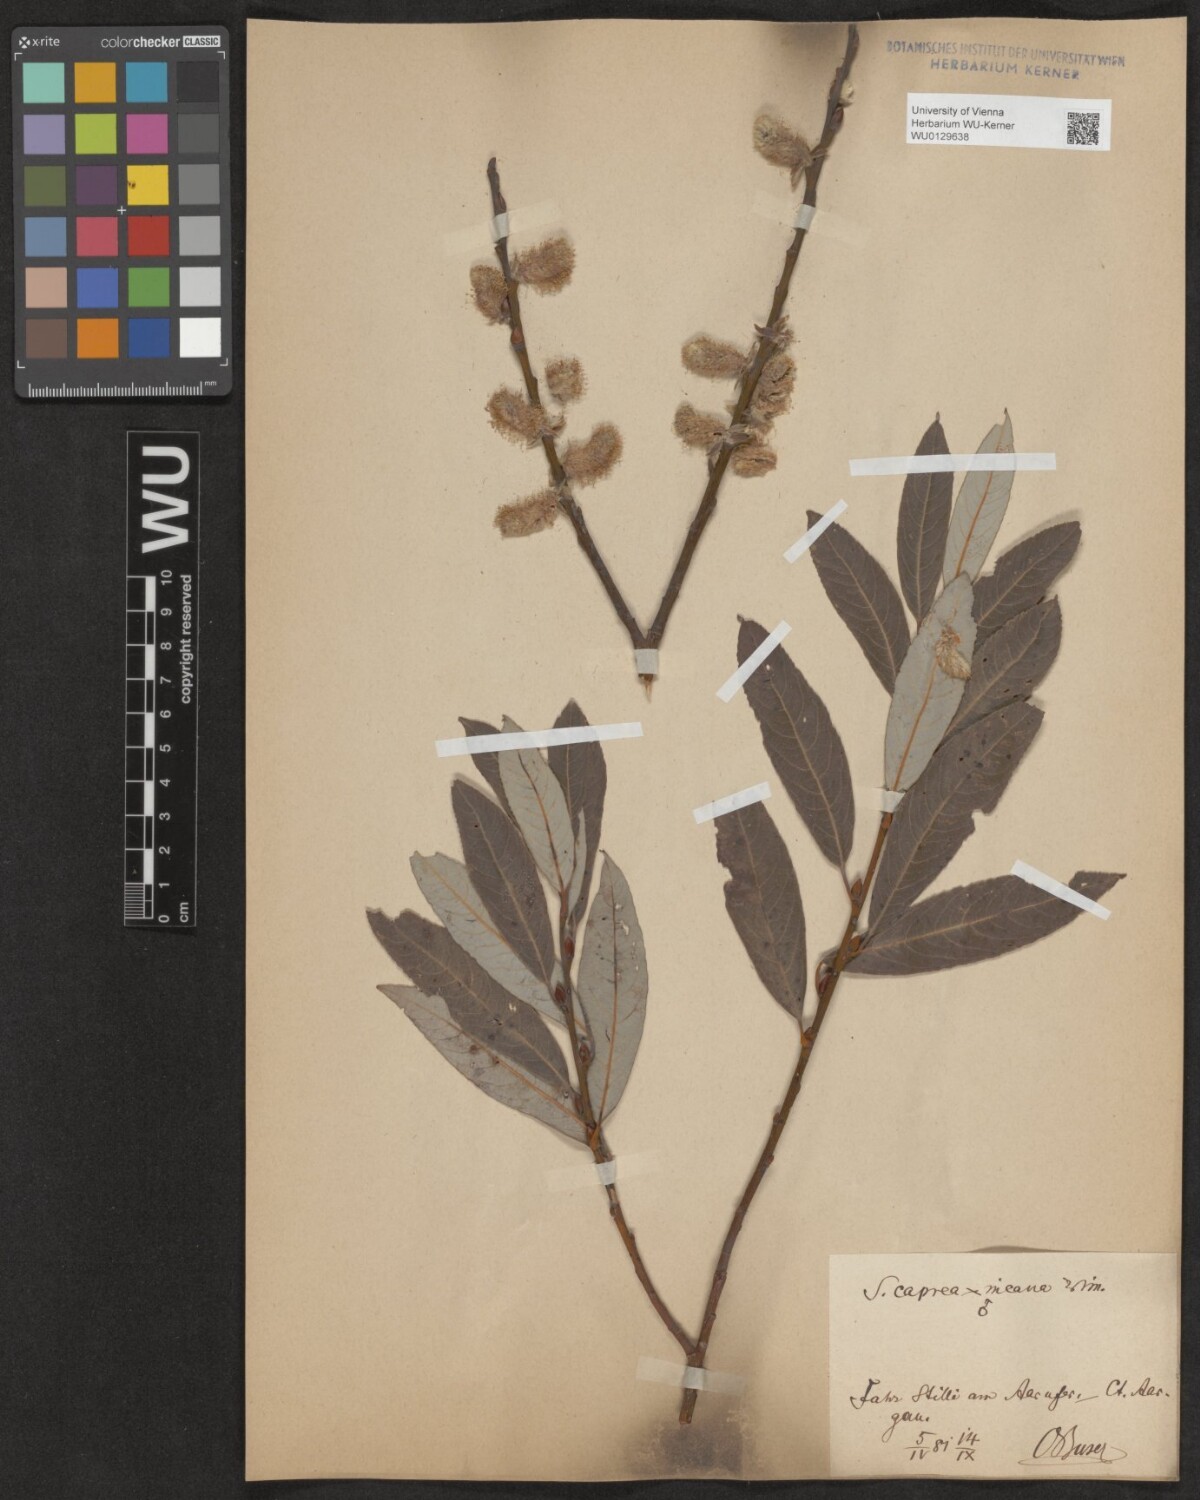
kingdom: Plantae
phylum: Tracheophyta
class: Magnoliopsida
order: Malpighiales
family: Salicaceae
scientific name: Salicaceae
